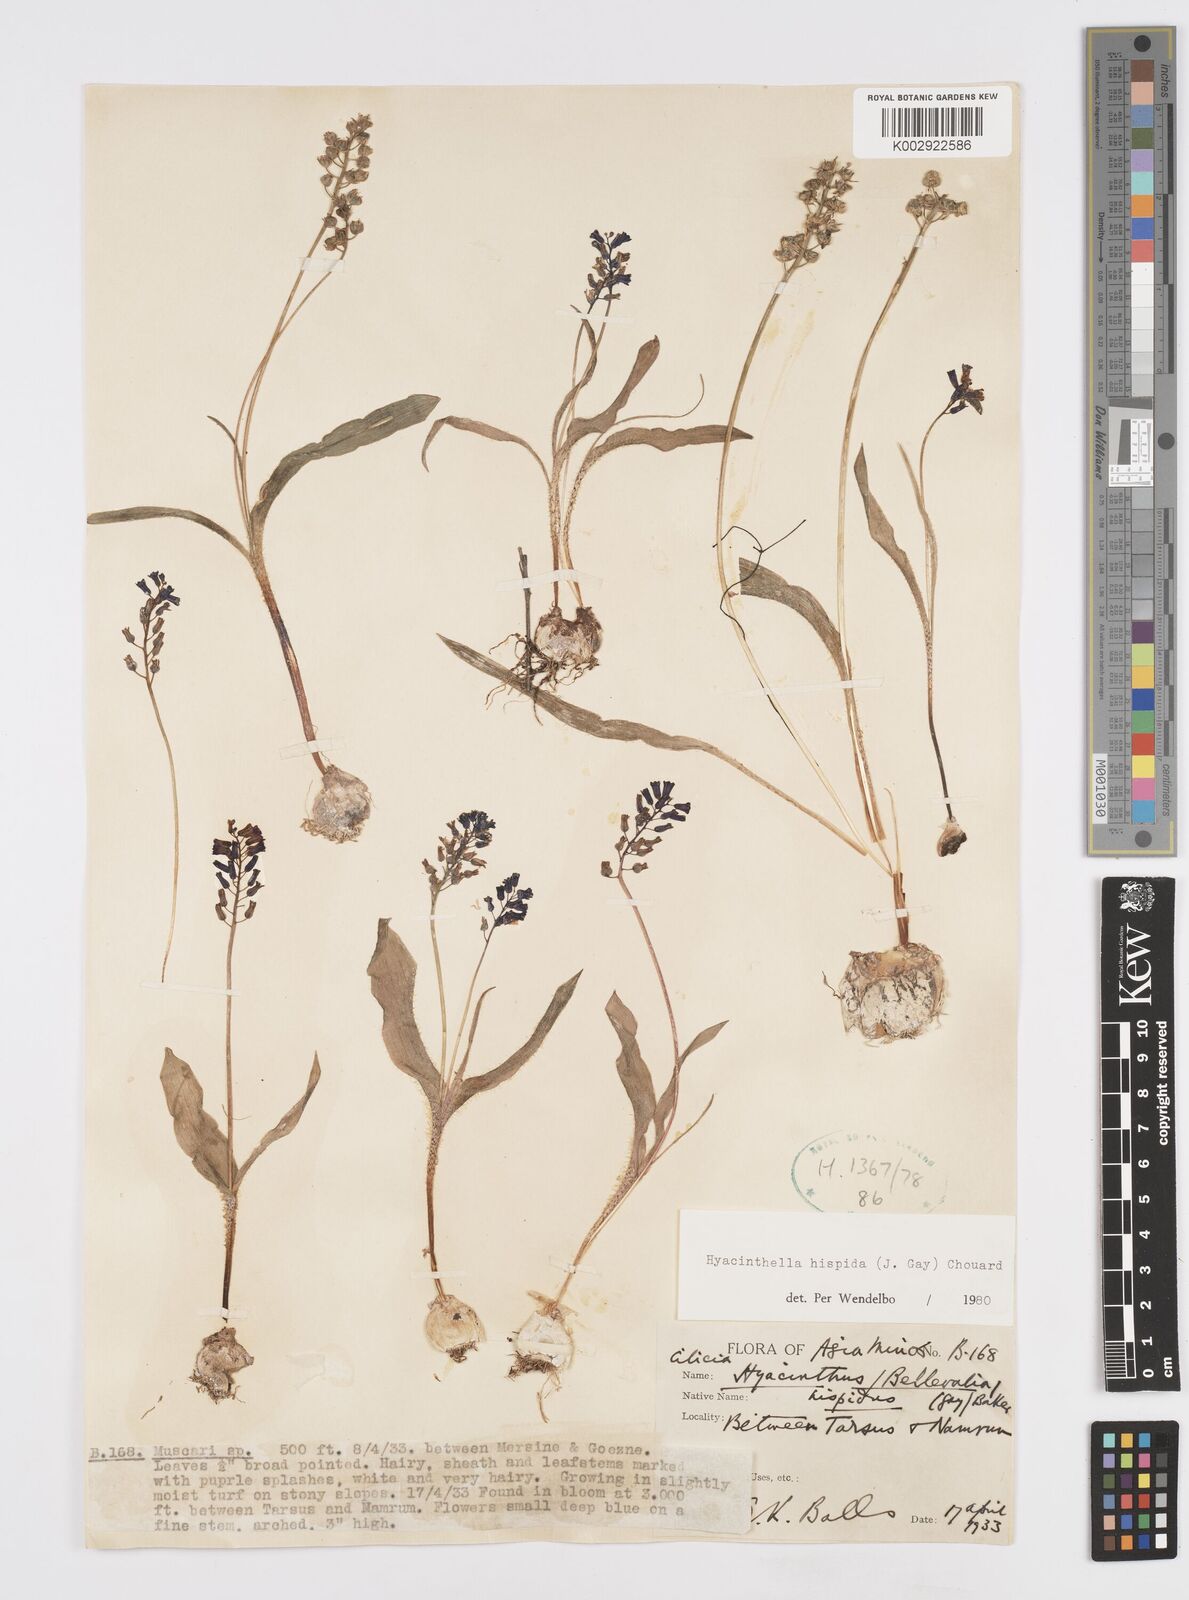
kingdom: Plantae
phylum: Tracheophyta
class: Liliopsida
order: Asparagales
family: Asparagaceae
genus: Hyacinthella
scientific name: Hyacinthella hispida
